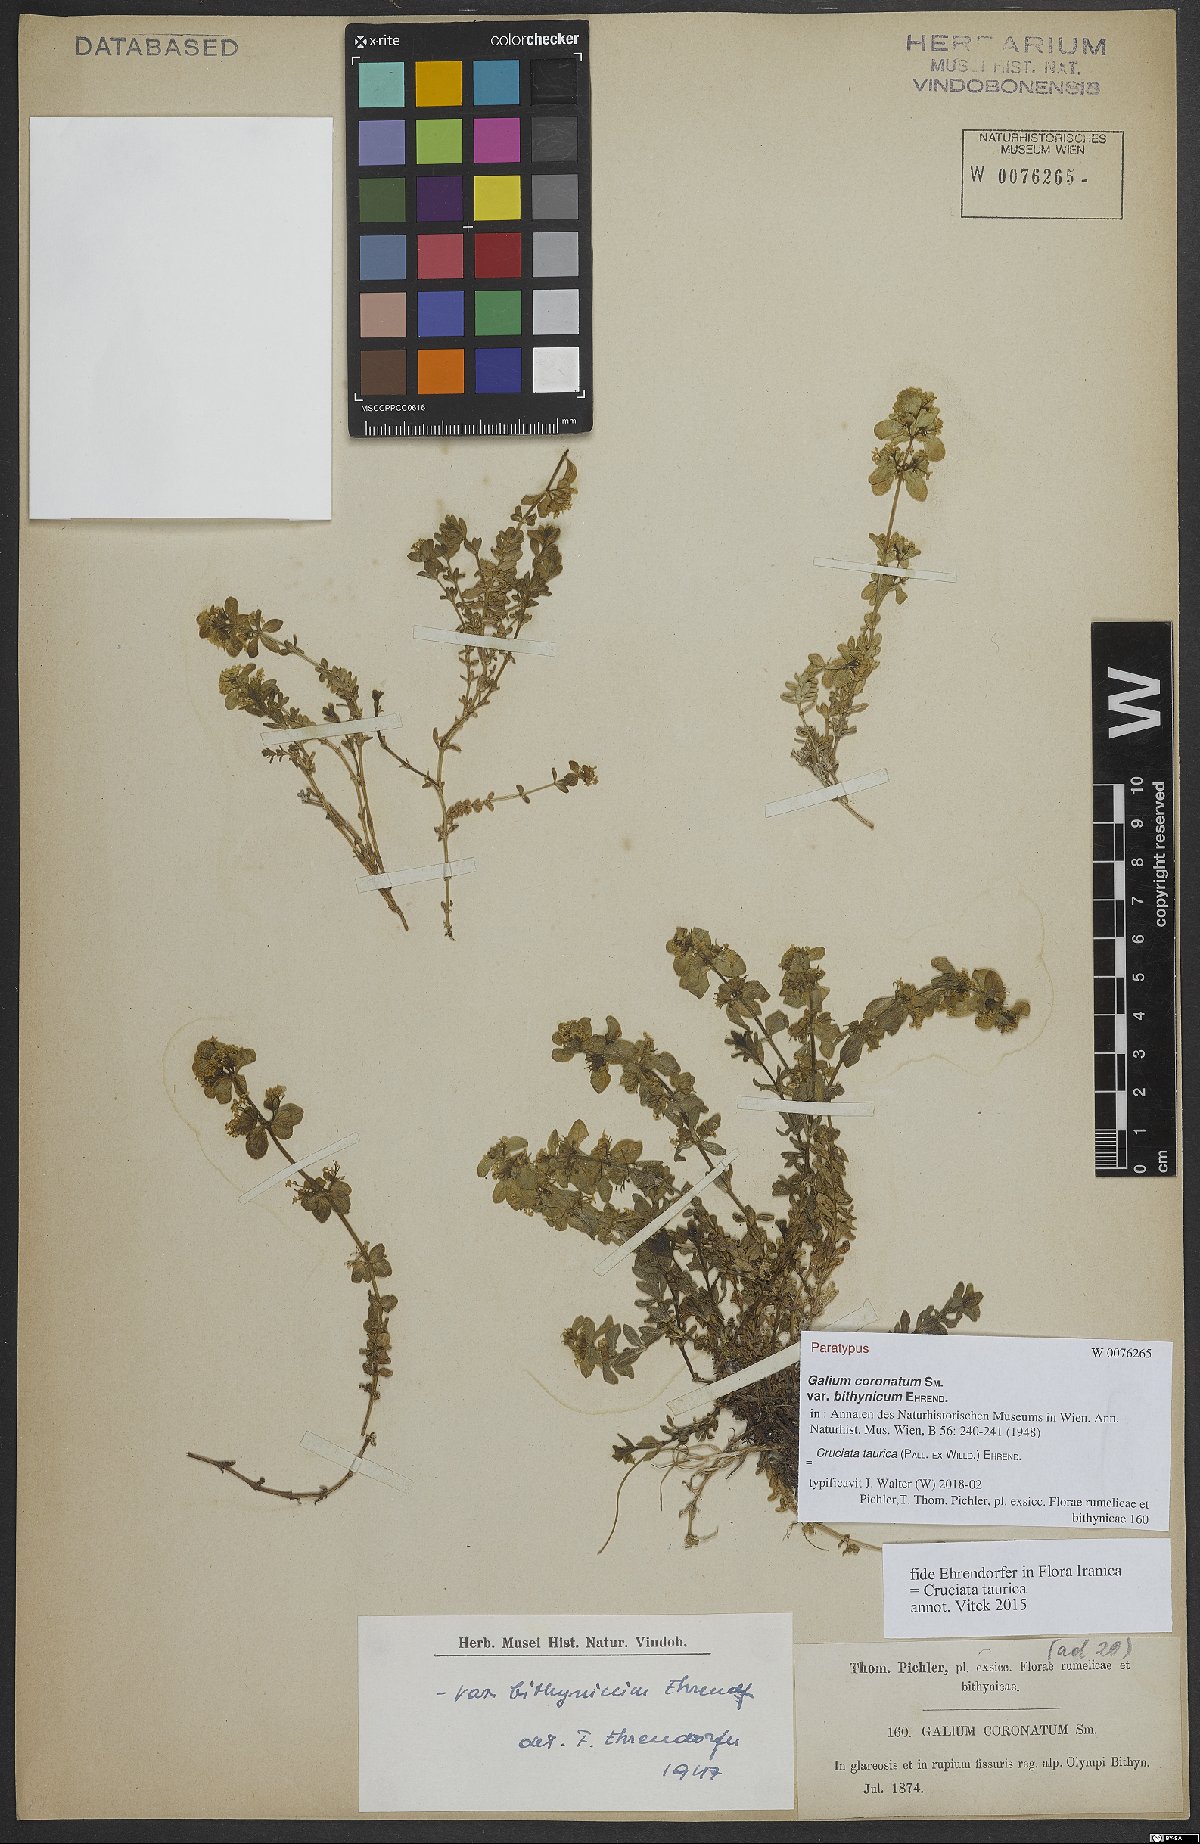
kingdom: Plantae
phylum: Tracheophyta
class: Magnoliopsida
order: Gentianales
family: Rubiaceae
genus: Cruciata
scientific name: Cruciata taurica
